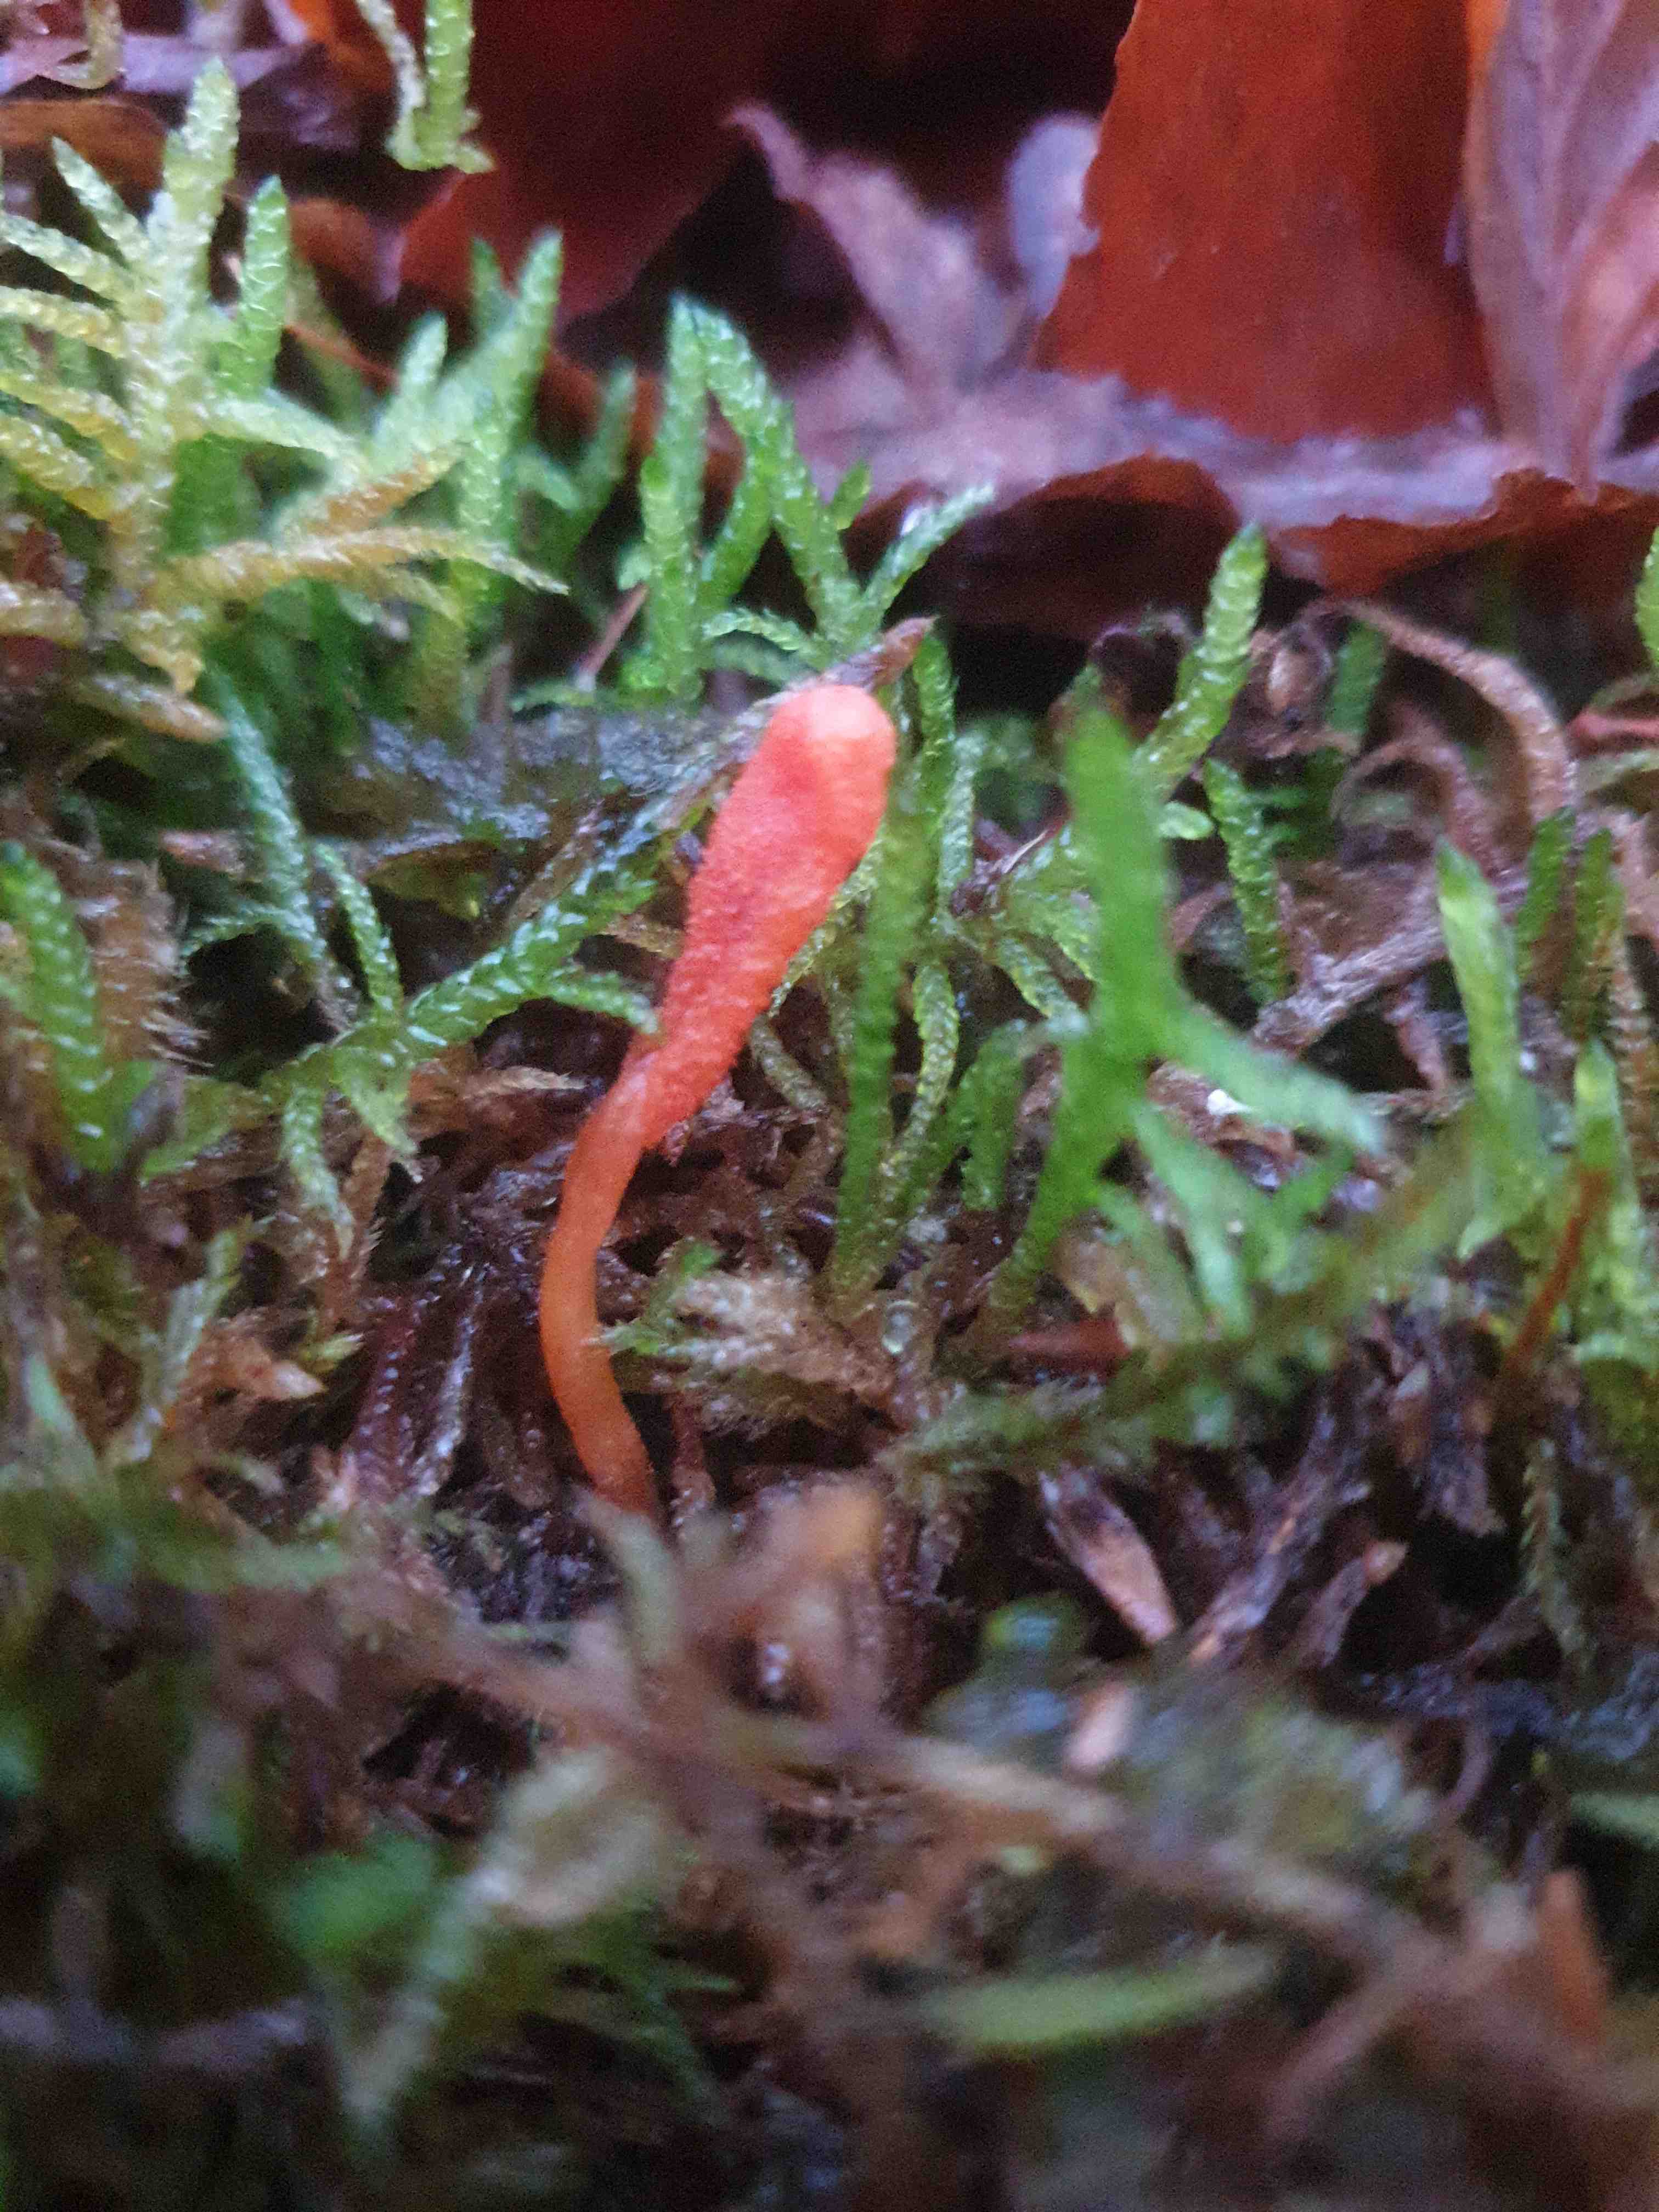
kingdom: Fungi
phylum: Ascomycota
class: Sordariomycetes
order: Hypocreales
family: Cordycipitaceae
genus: Cordyceps
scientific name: Cordyceps militaris
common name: puppe-snyltekølle
